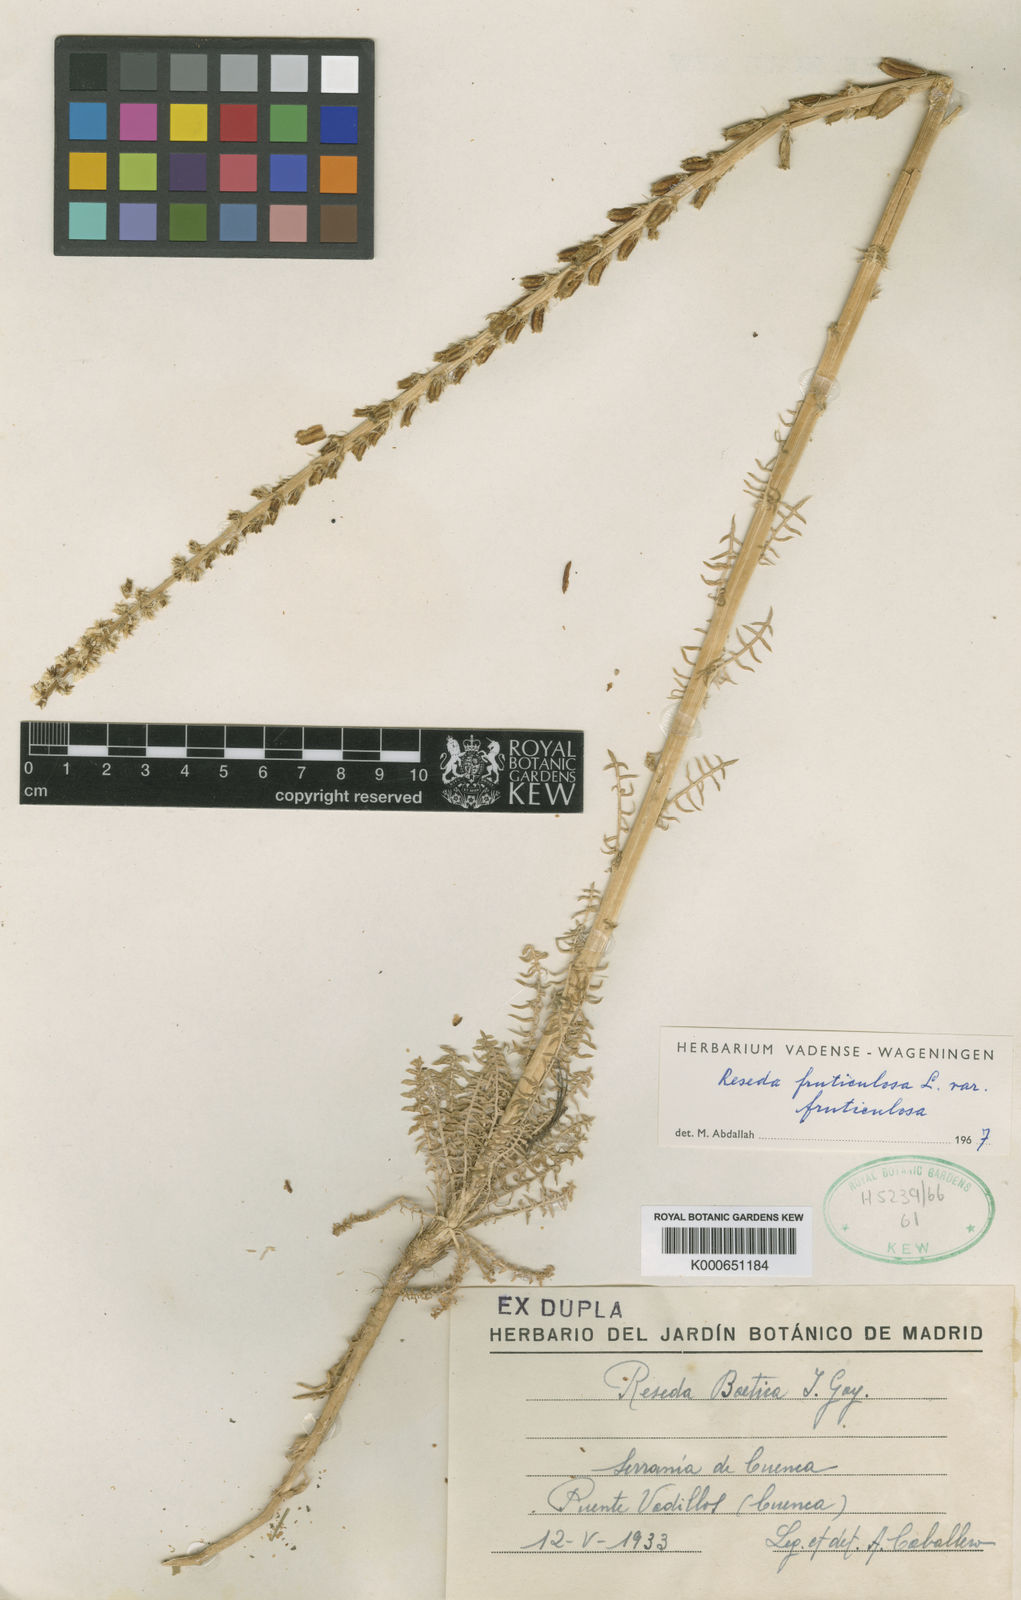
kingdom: Plantae
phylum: Tracheophyta
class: Magnoliopsida
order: Brassicales
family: Resedaceae
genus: Reseda
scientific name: Reseda alba
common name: White mignonette
